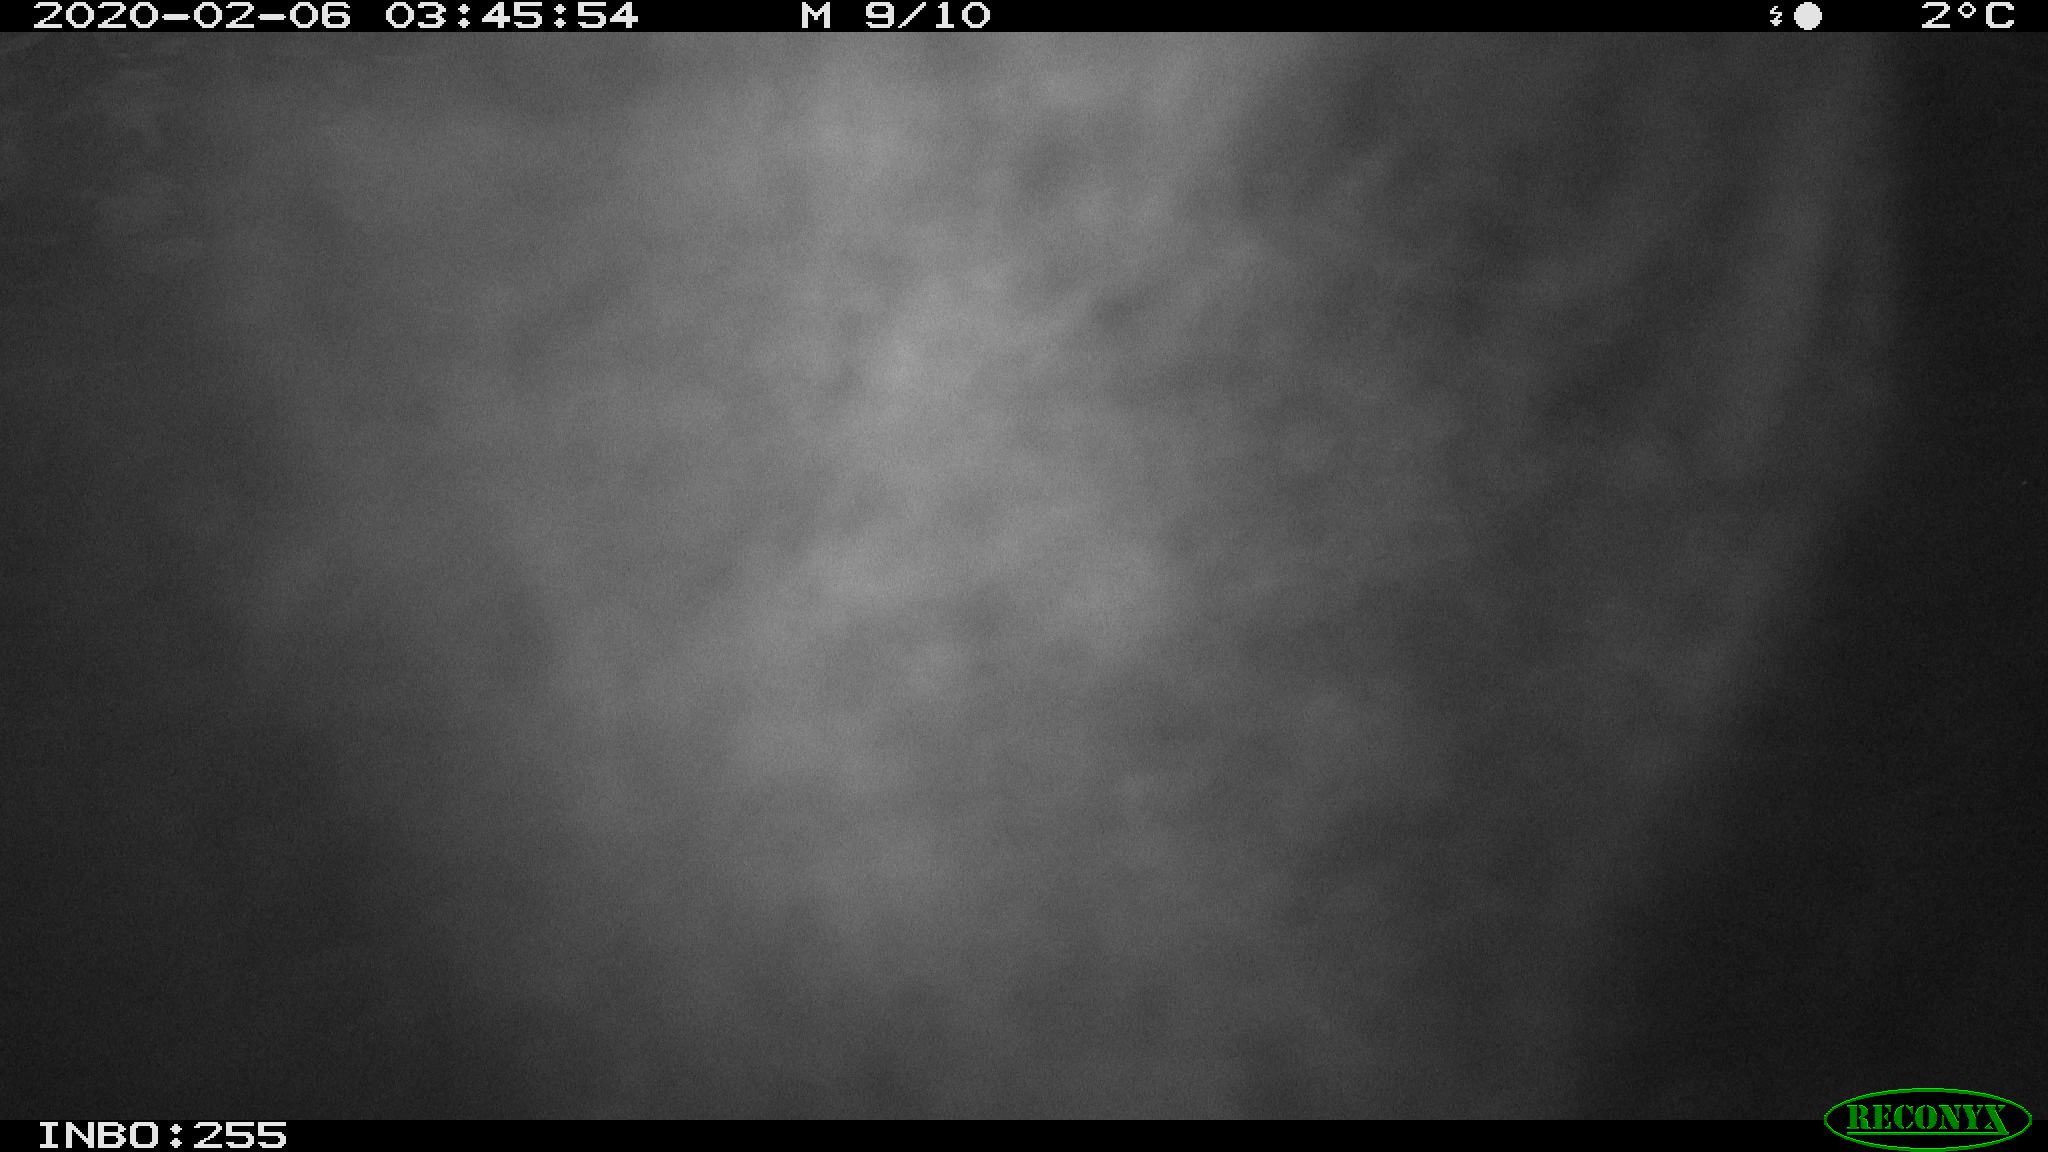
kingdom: Animalia
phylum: Chordata
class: Mammalia
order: Rodentia
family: Cricetidae
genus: Ondatra
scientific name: Ondatra zibethicus
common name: Muskrat
